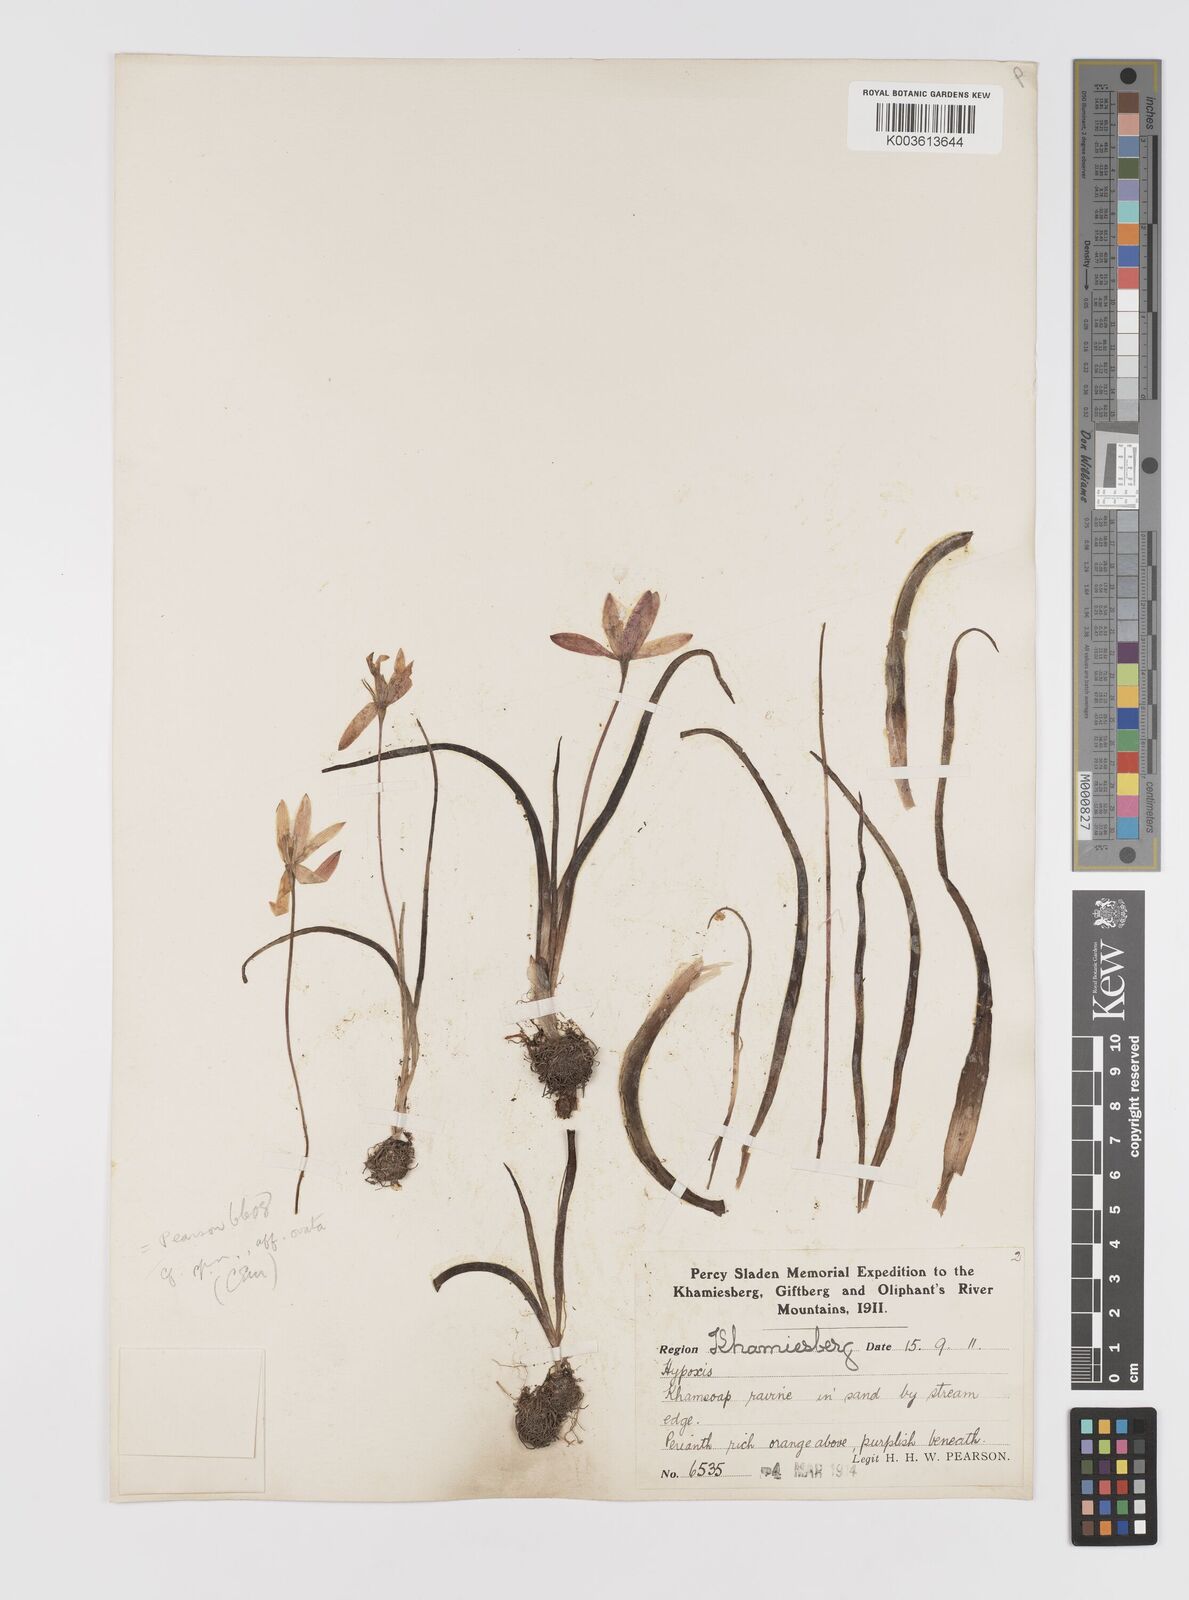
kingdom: Plantae
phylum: Tracheophyta
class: Liliopsida
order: Asparagales
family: Hypoxidaceae
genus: Pauridia
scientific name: Pauridia
